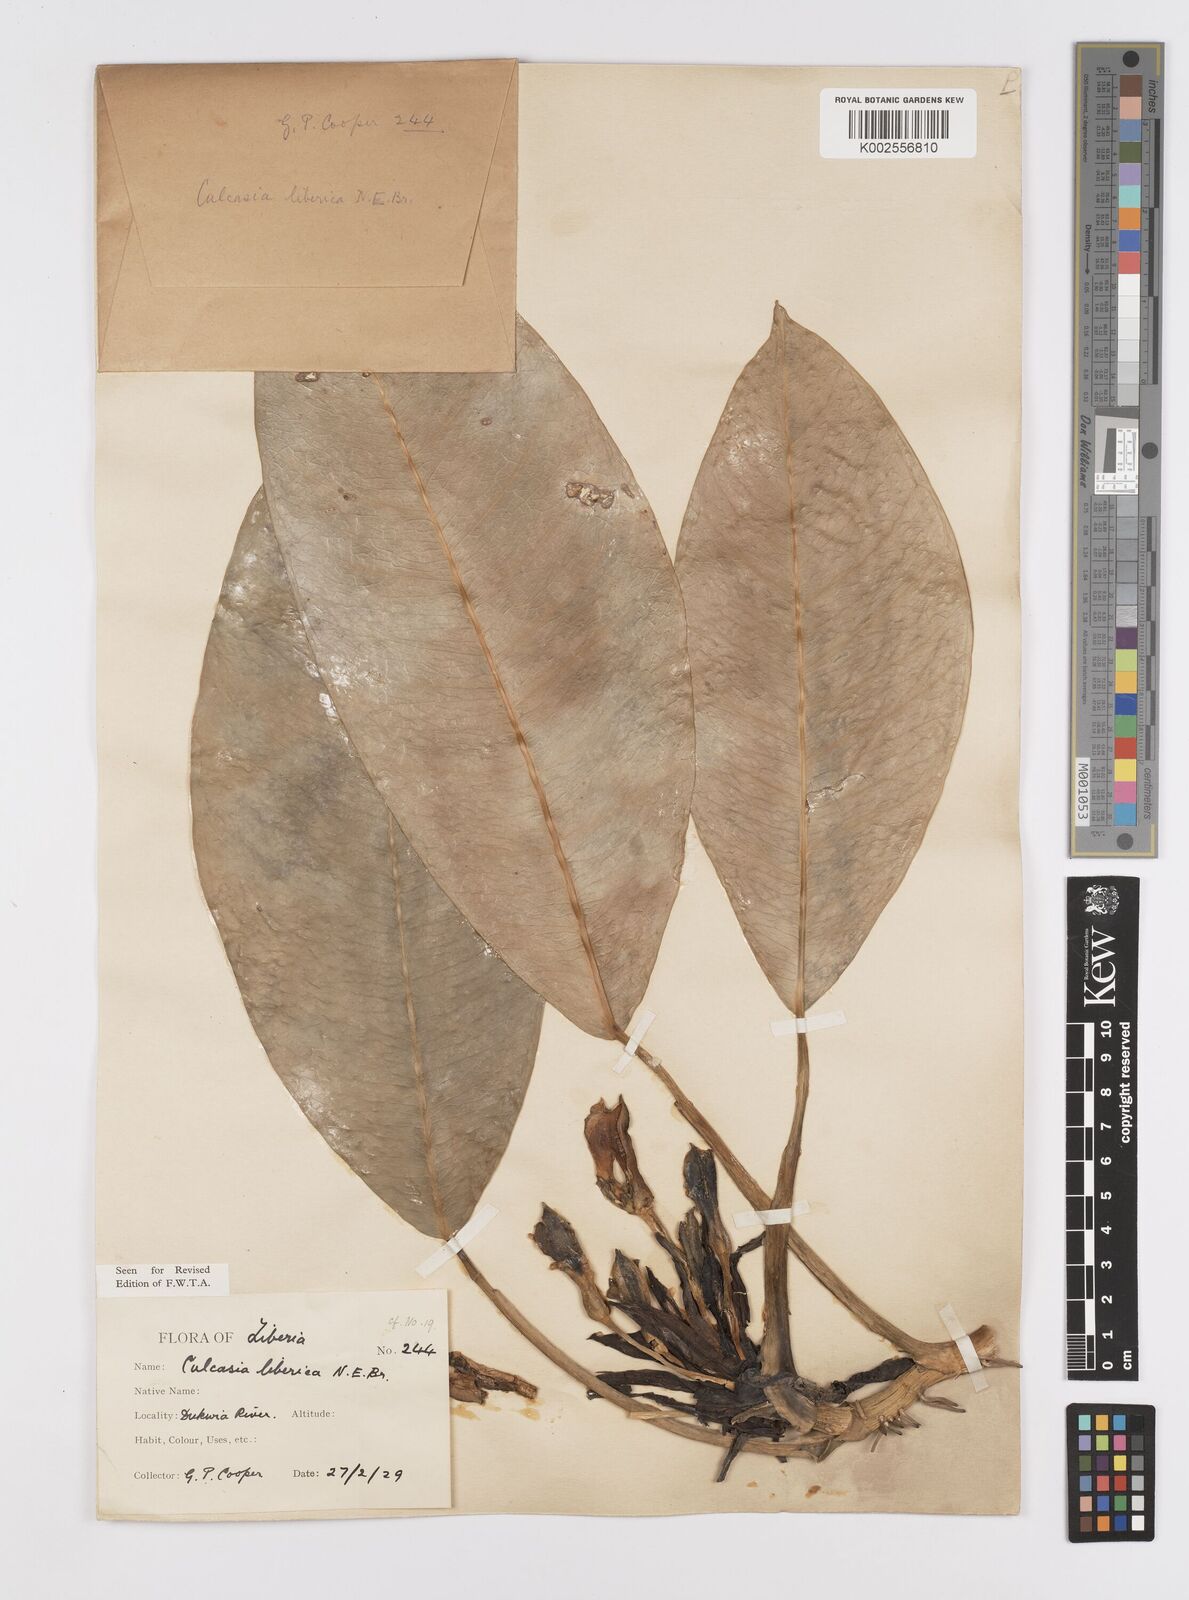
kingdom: Plantae
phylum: Tracheophyta
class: Liliopsida
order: Alismatales
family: Araceae
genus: Culcasia
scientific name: Culcasia liberica
